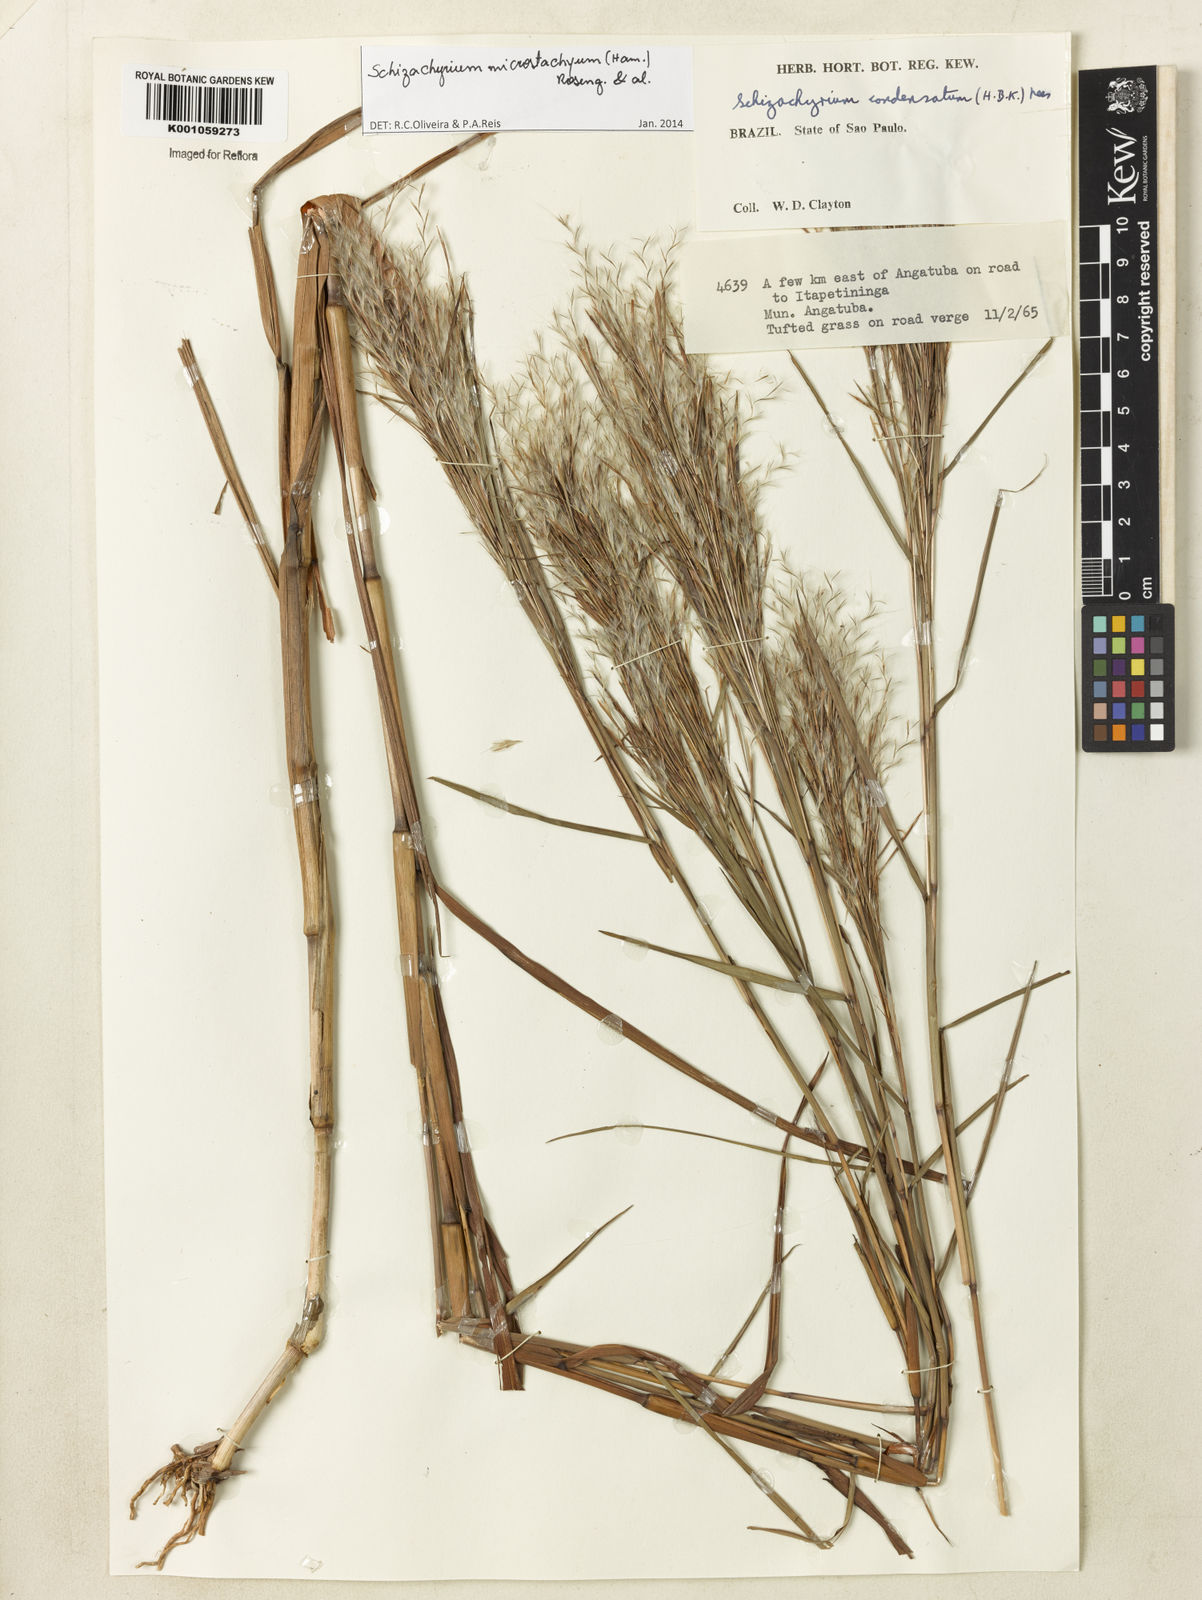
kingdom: Plantae
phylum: Tracheophyta
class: Liliopsida
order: Poales
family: Poaceae
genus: Schizachyrium
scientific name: Schizachyrium
